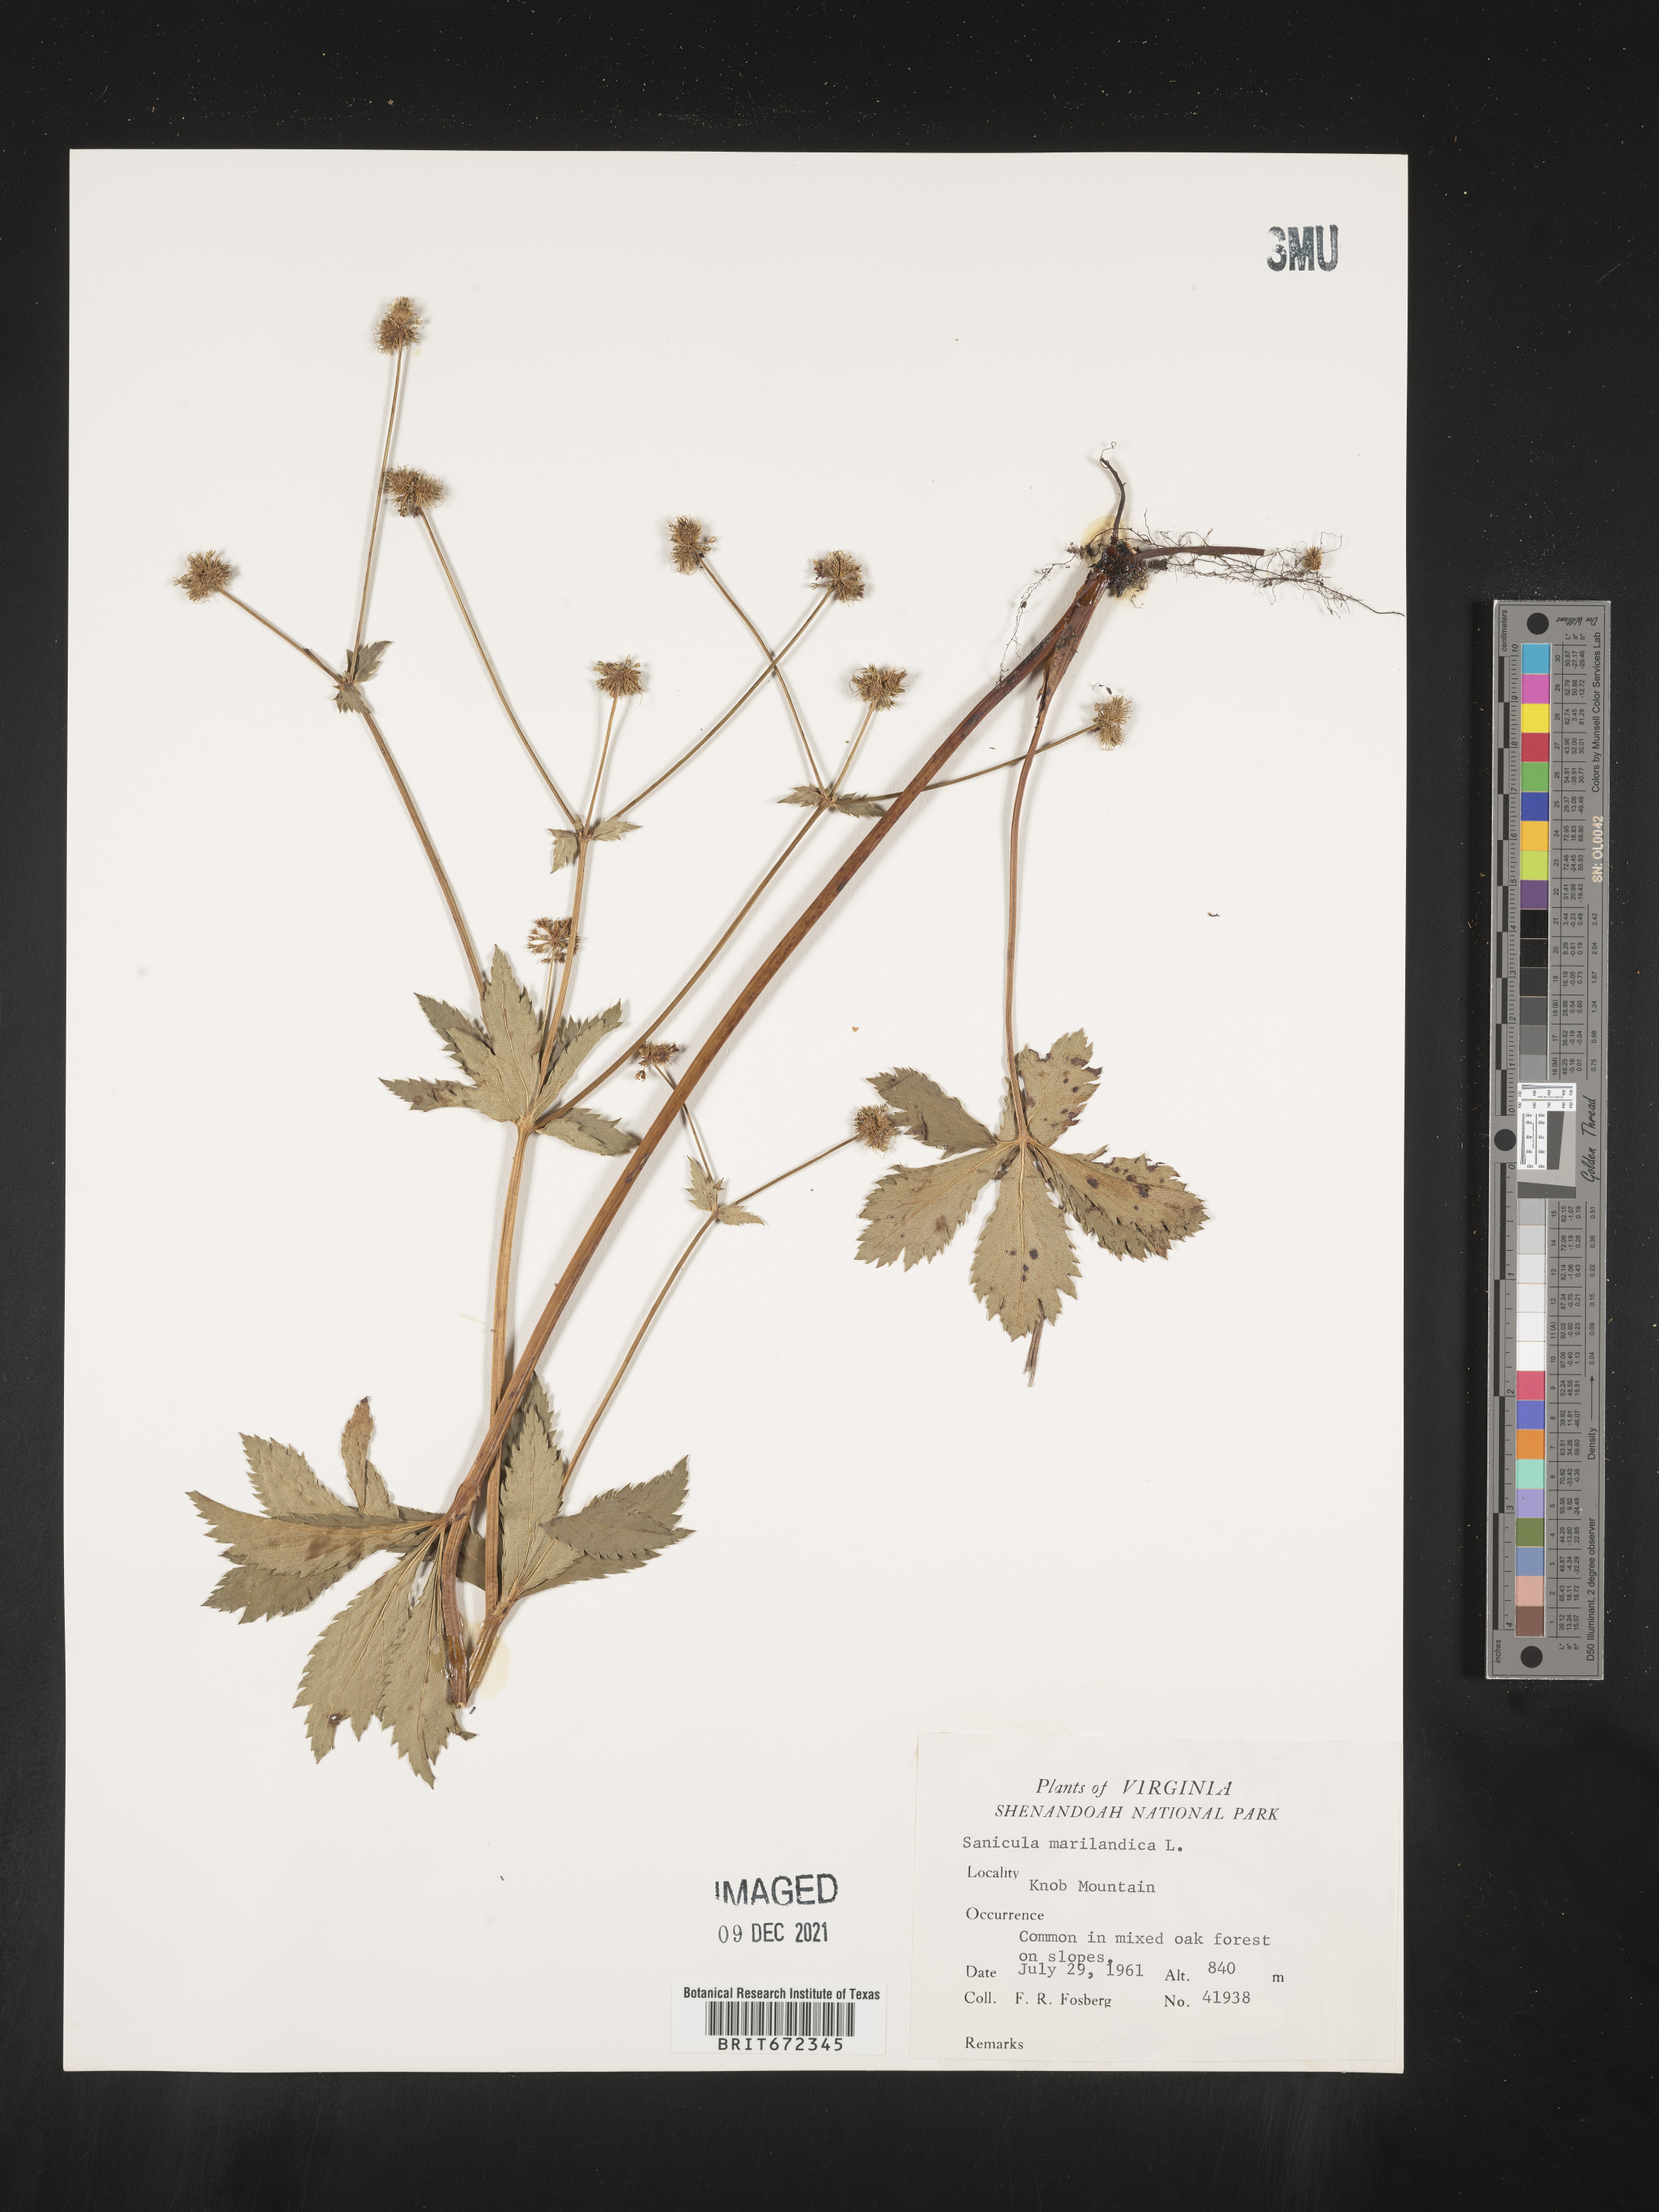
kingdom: Plantae
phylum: Tracheophyta
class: Magnoliopsida
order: Apiales
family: Apiaceae
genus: Sanicula
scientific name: Sanicula marilandica
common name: Black snakeroot
